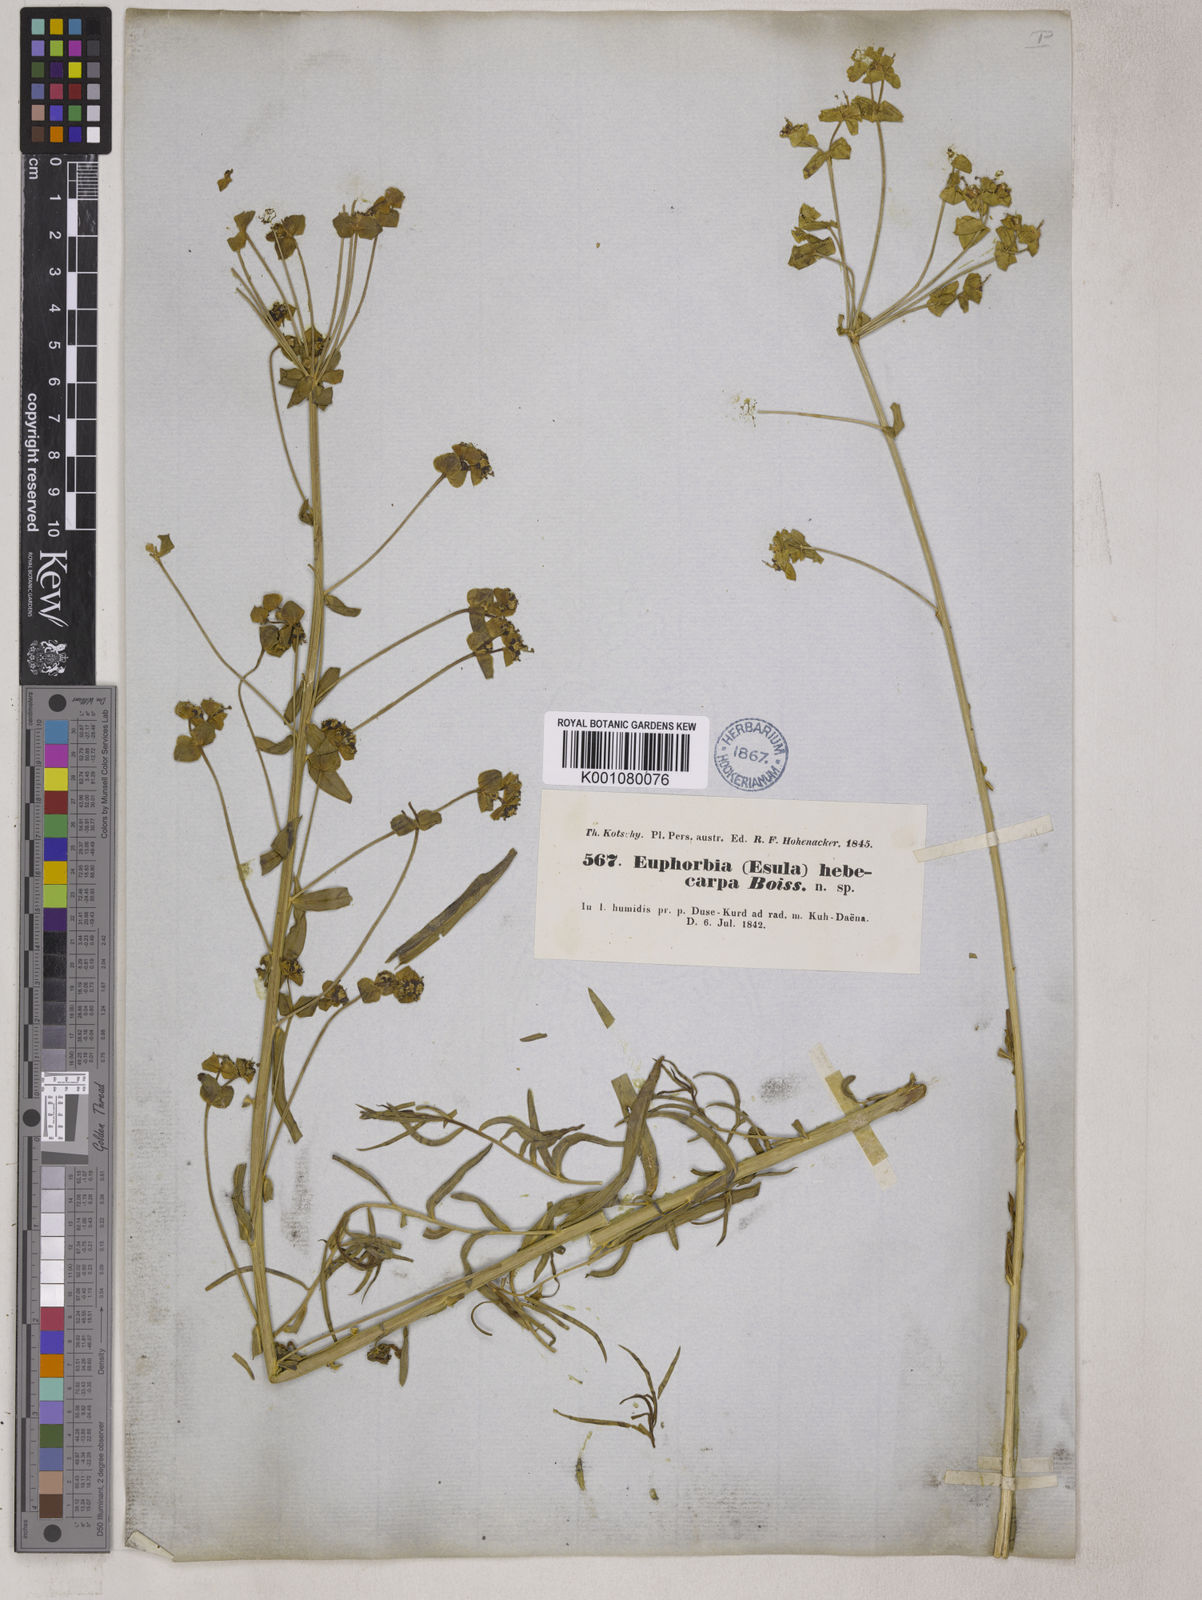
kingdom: Plantae
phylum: Tracheophyta
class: Magnoliopsida
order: Malpighiales
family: Euphorbiaceae
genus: Euphorbia
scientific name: Euphorbia hebecarpa
